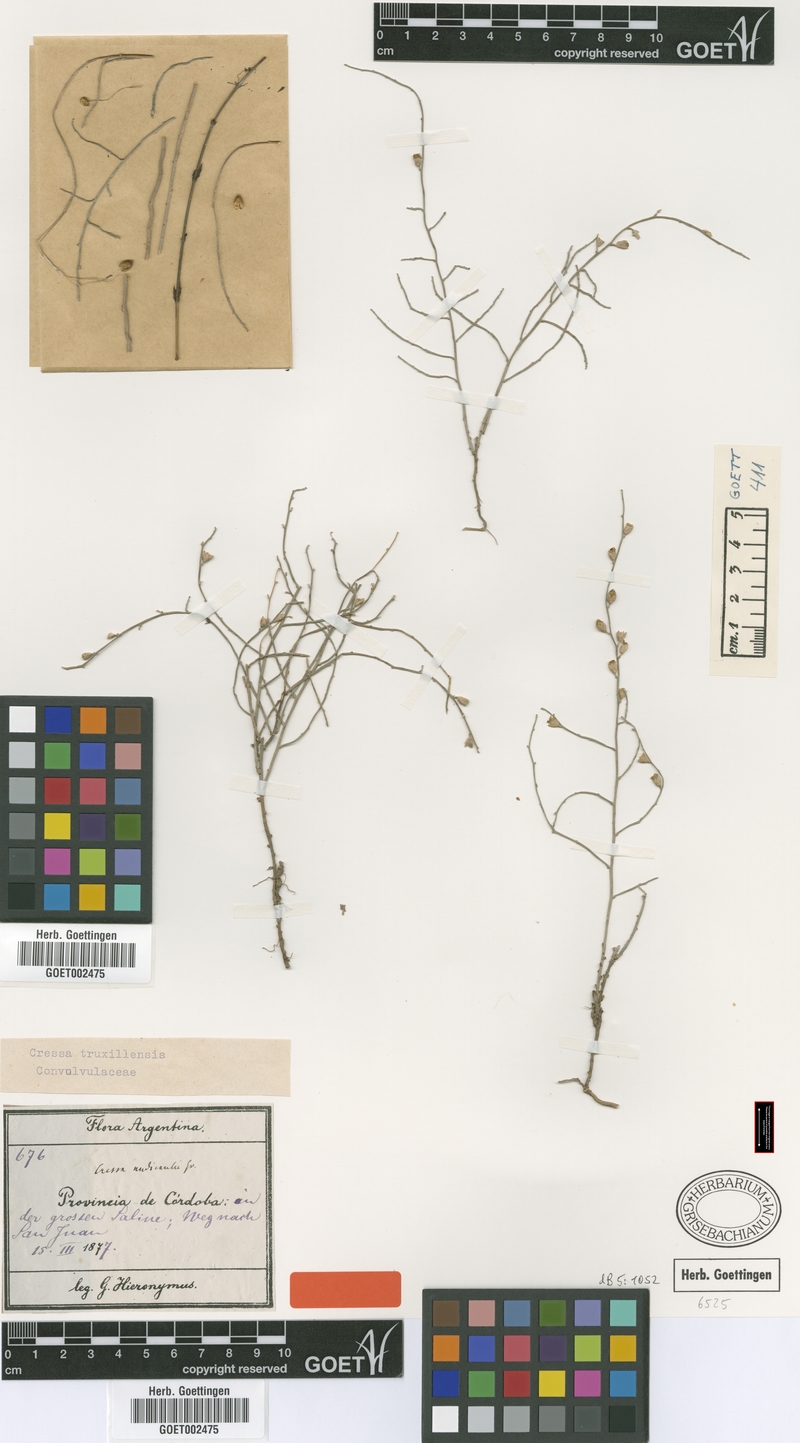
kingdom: Plantae
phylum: Tracheophyta
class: Magnoliopsida
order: Solanales
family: Convolvulaceae
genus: Cressa
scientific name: Cressa truxillensis
